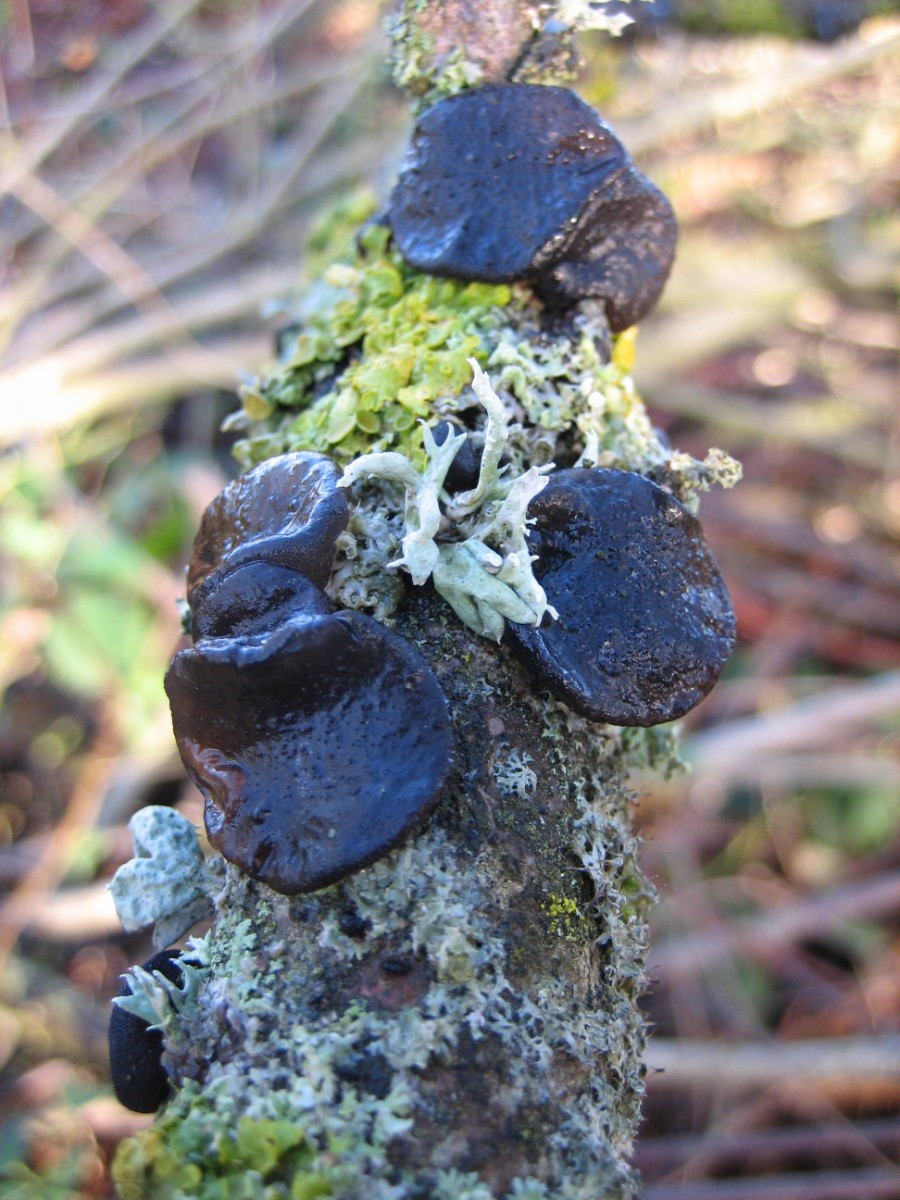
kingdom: Fungi
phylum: Basidiomycota
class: Agaricomycetes
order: Auriculariales
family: Auriculariaceae
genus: Exidia
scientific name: Exidia glandulosa
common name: ege-bævretop
